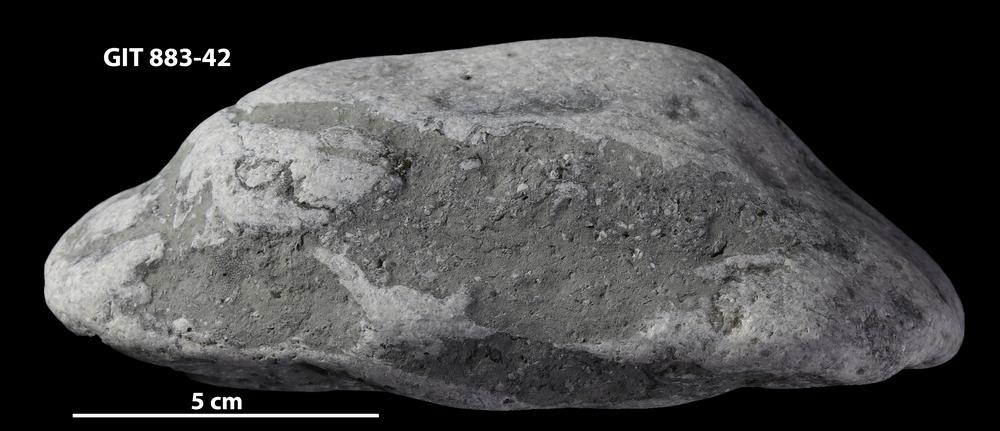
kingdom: Animalia
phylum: Porifera
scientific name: Porifera
